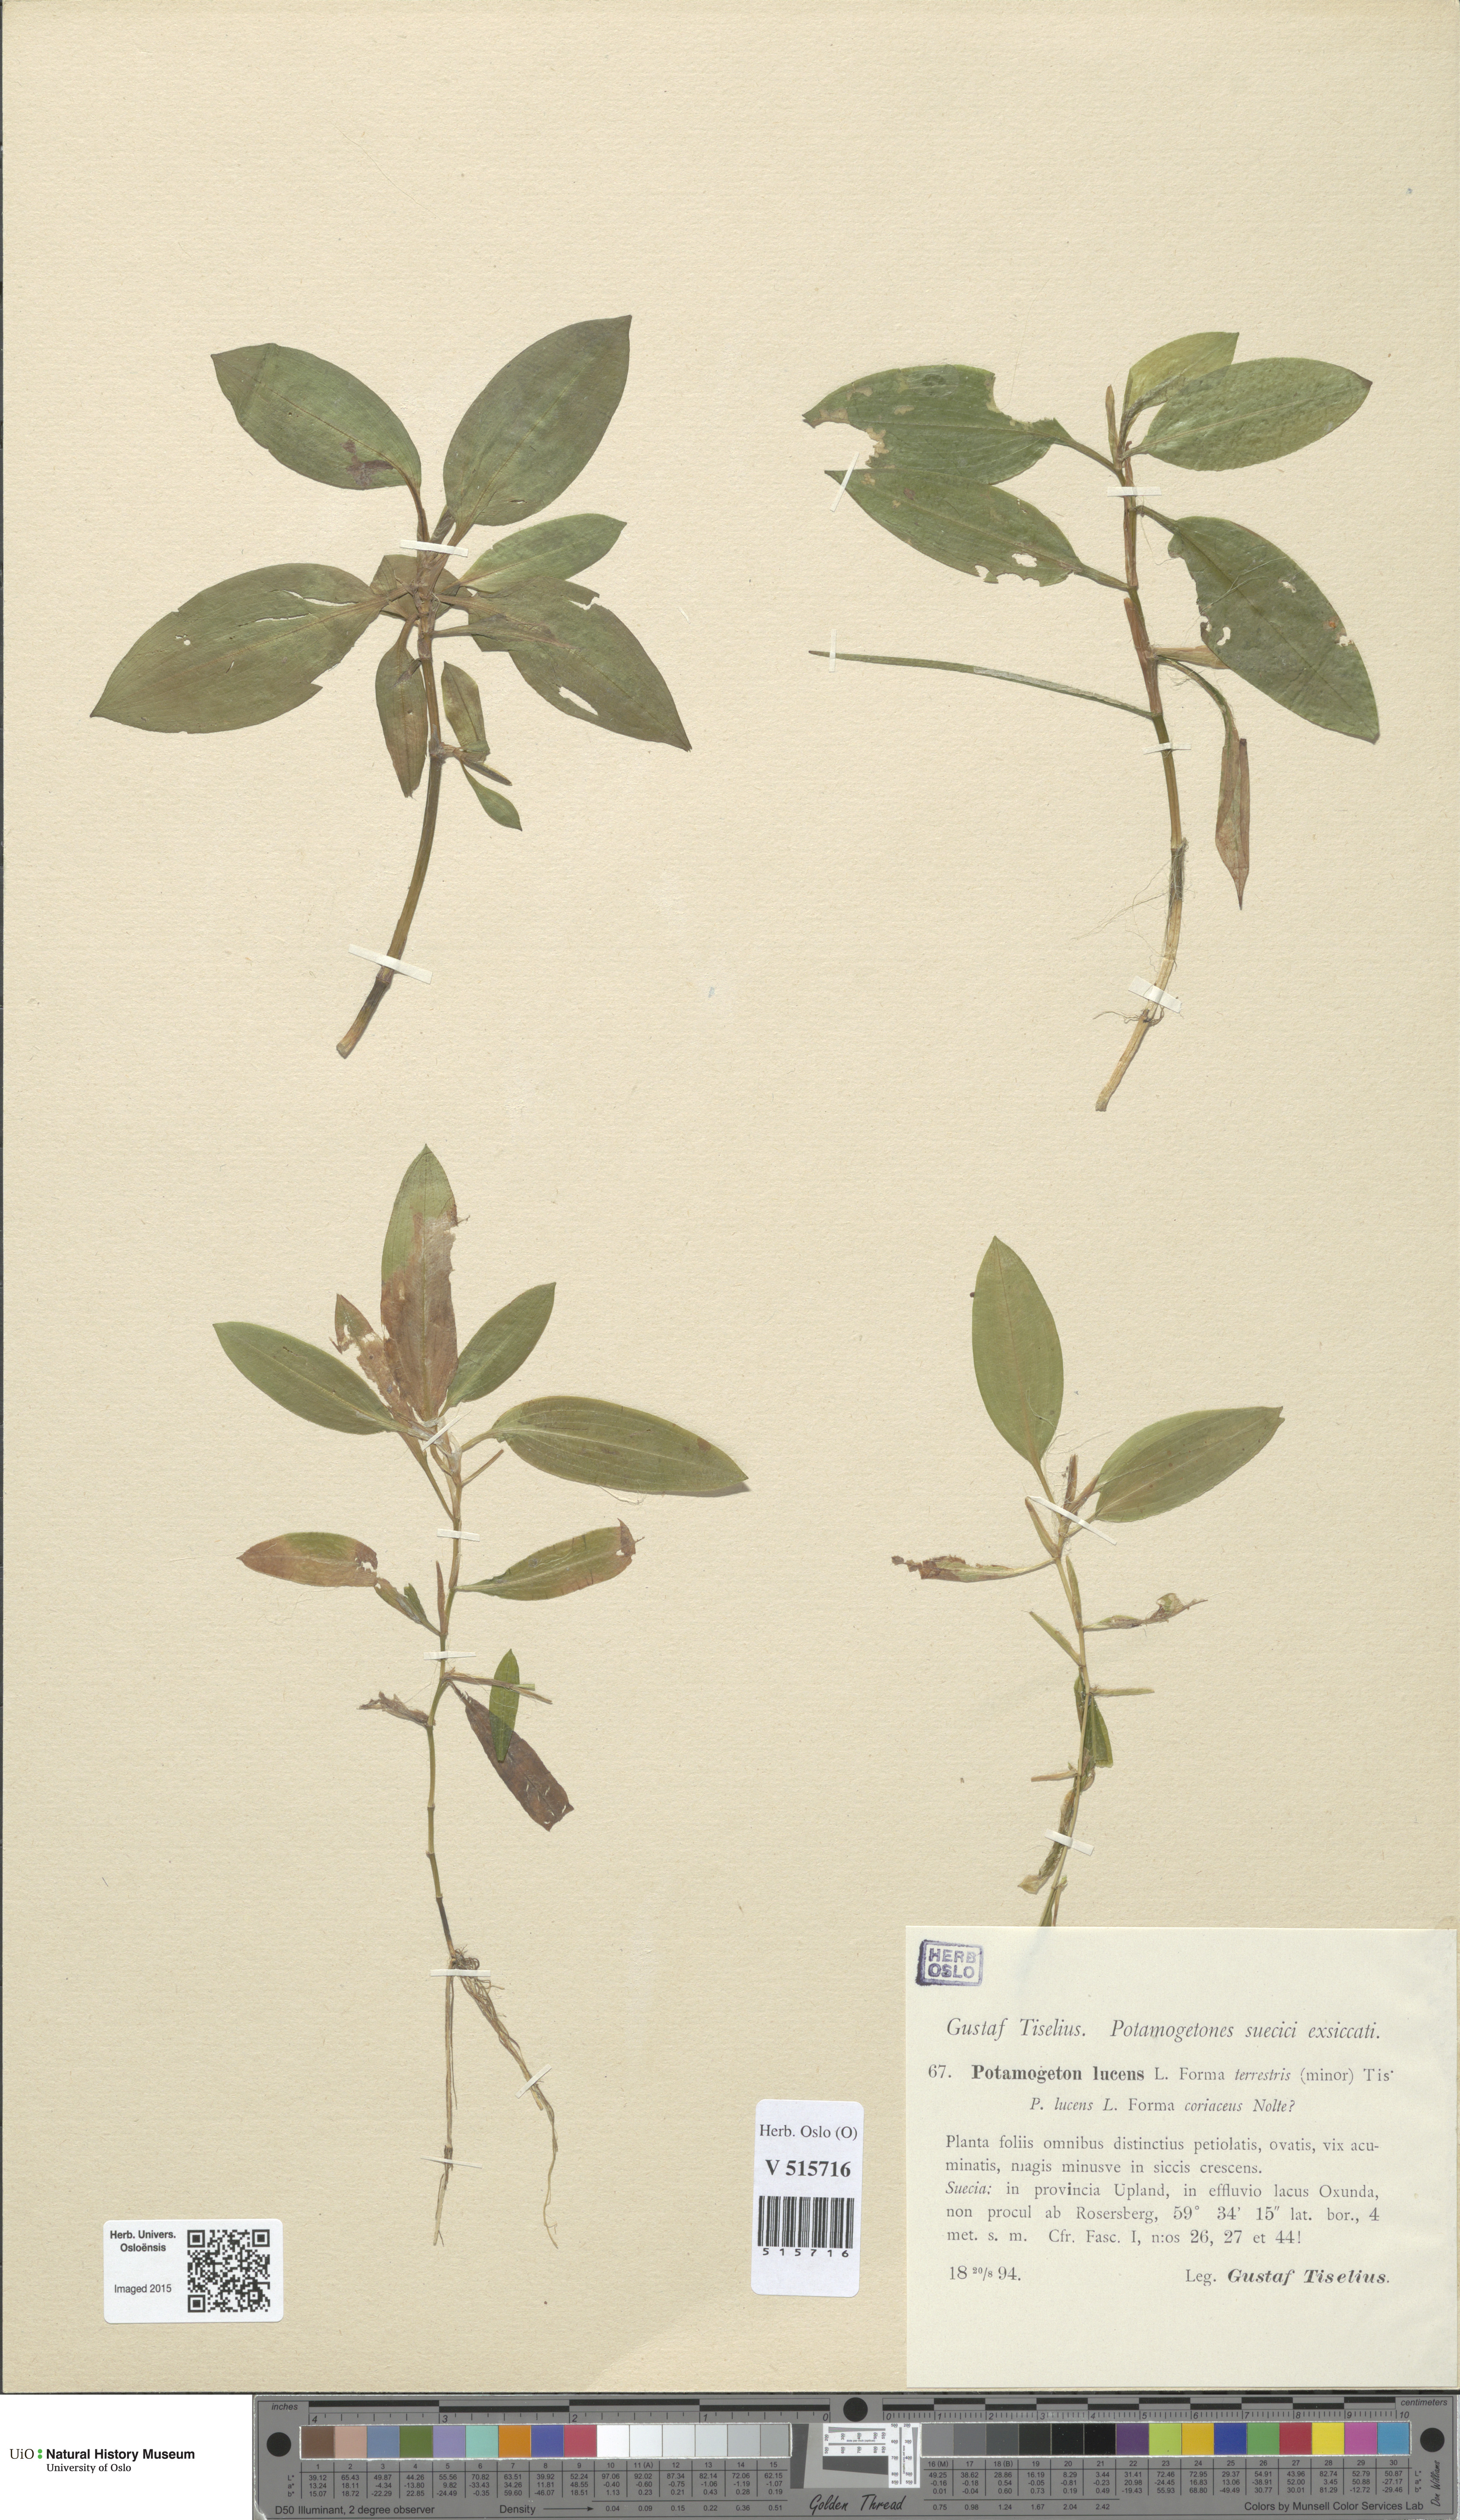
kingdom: Plantae
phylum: Tracheophyta
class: Liliopsida
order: Alismatales
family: Potamogetonaceae
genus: Potamogeton
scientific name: Potamogeton lucens
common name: Shining pondweed
